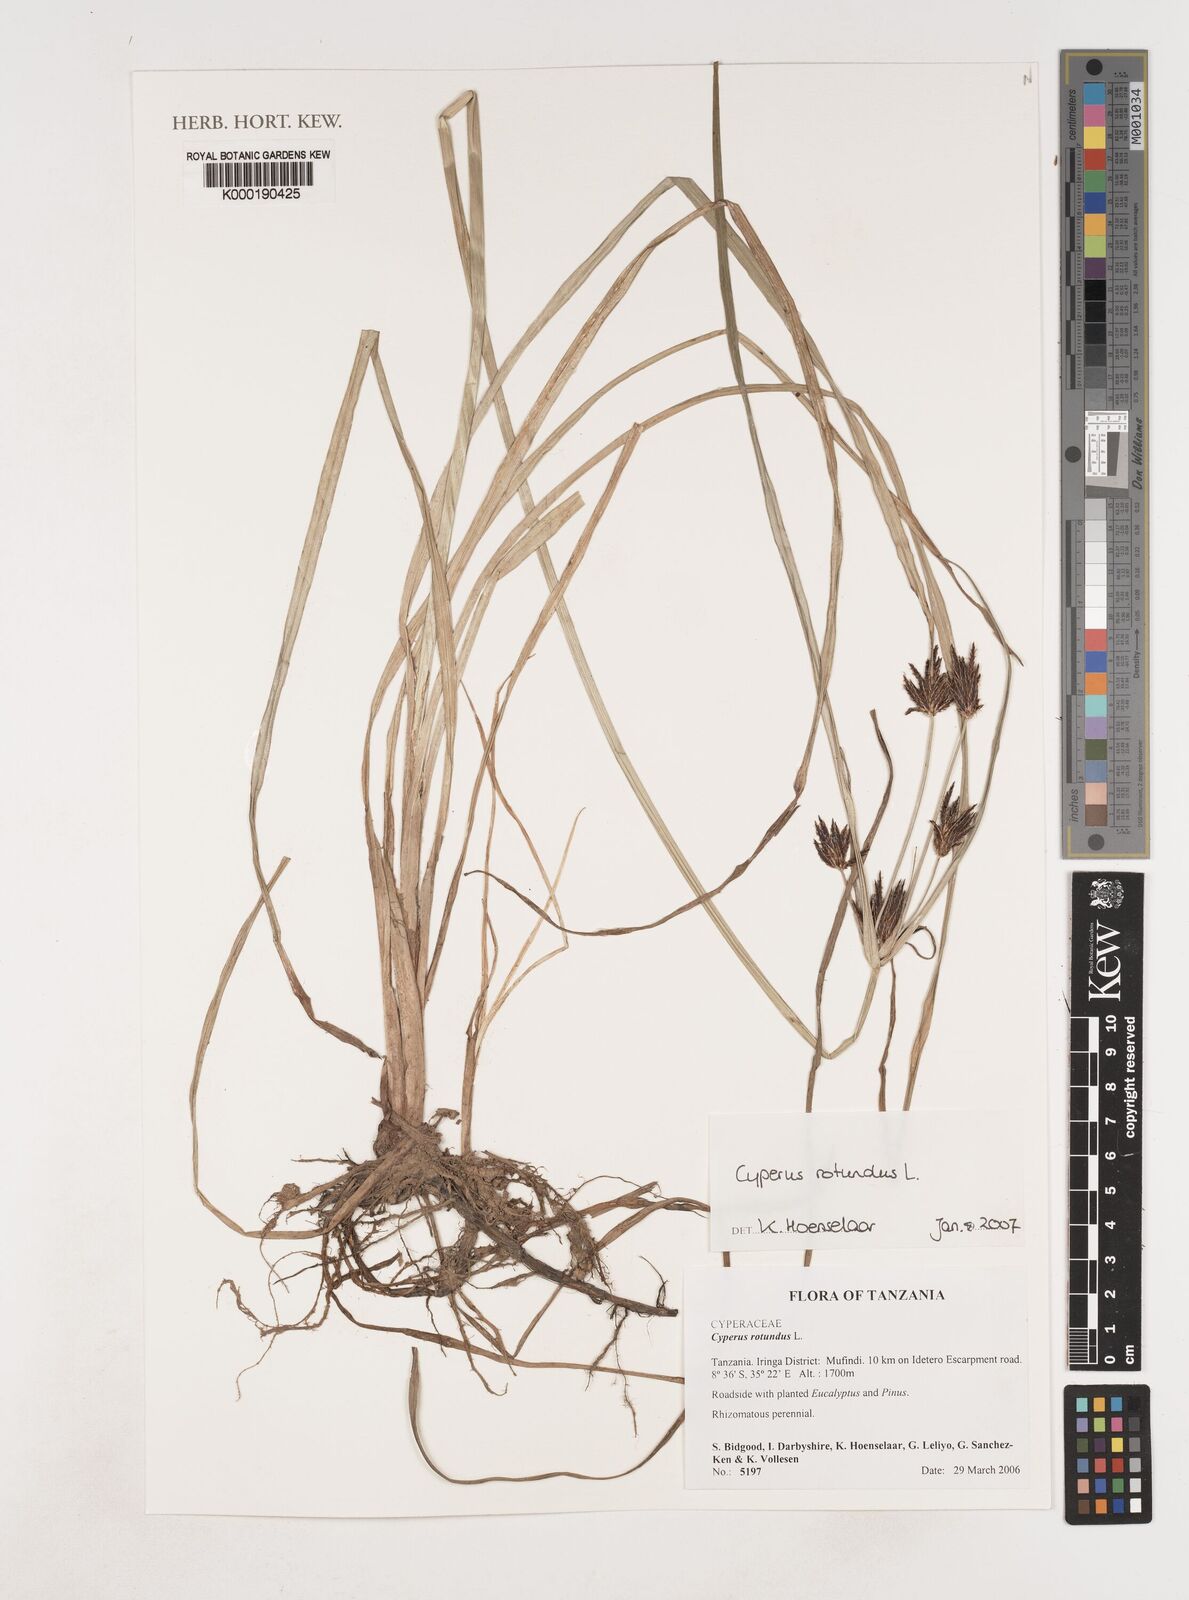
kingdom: Plantae
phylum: Tracheophyta
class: Liliopsida
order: Poales
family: Cyperaceae
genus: Cyperus
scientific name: Cyperus rotundus
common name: Nutgrass
